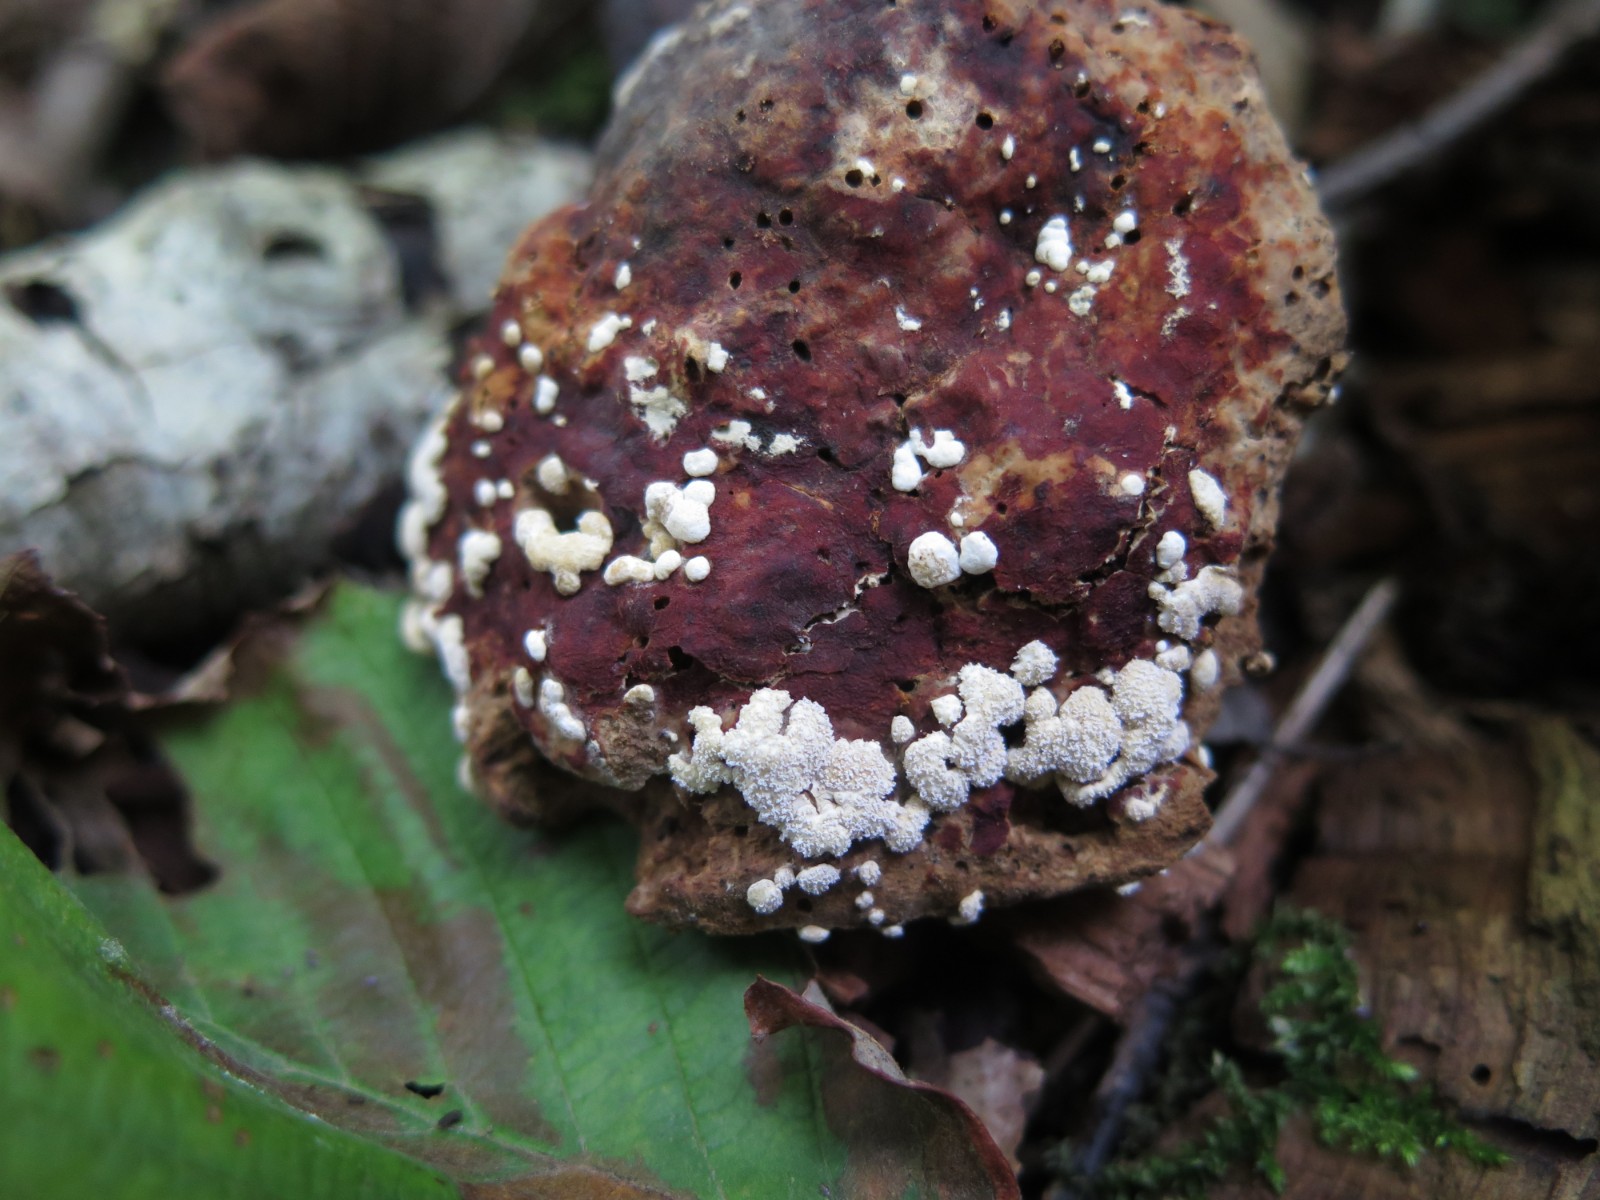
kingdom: Fungi
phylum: Ascomycota
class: Sordariomycetes
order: Hypocreales
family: Hypocreaceae
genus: Trichoderma
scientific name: Trichoderma pulvinatum
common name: snyltende kødkerne
